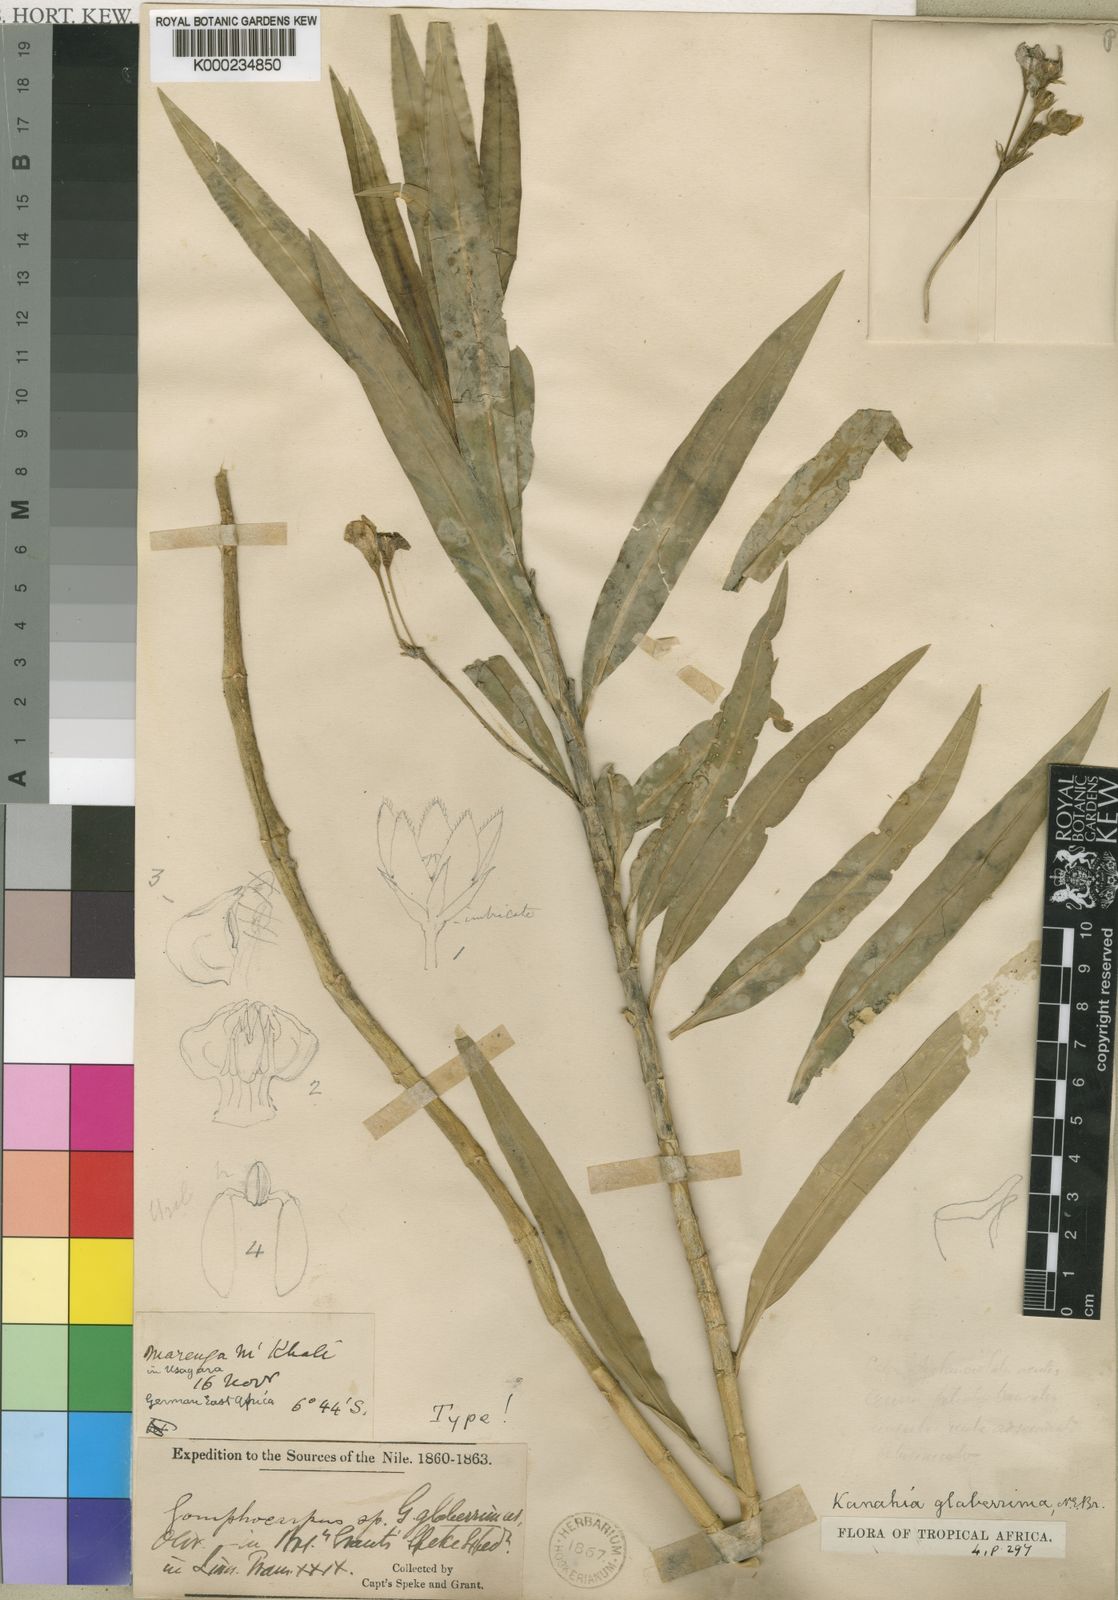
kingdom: Plantae
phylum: Tracheophyta
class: Magnoliopsida
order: Gentianales
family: Apocynaceae
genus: Kanahia
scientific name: Kanahia laniflora
